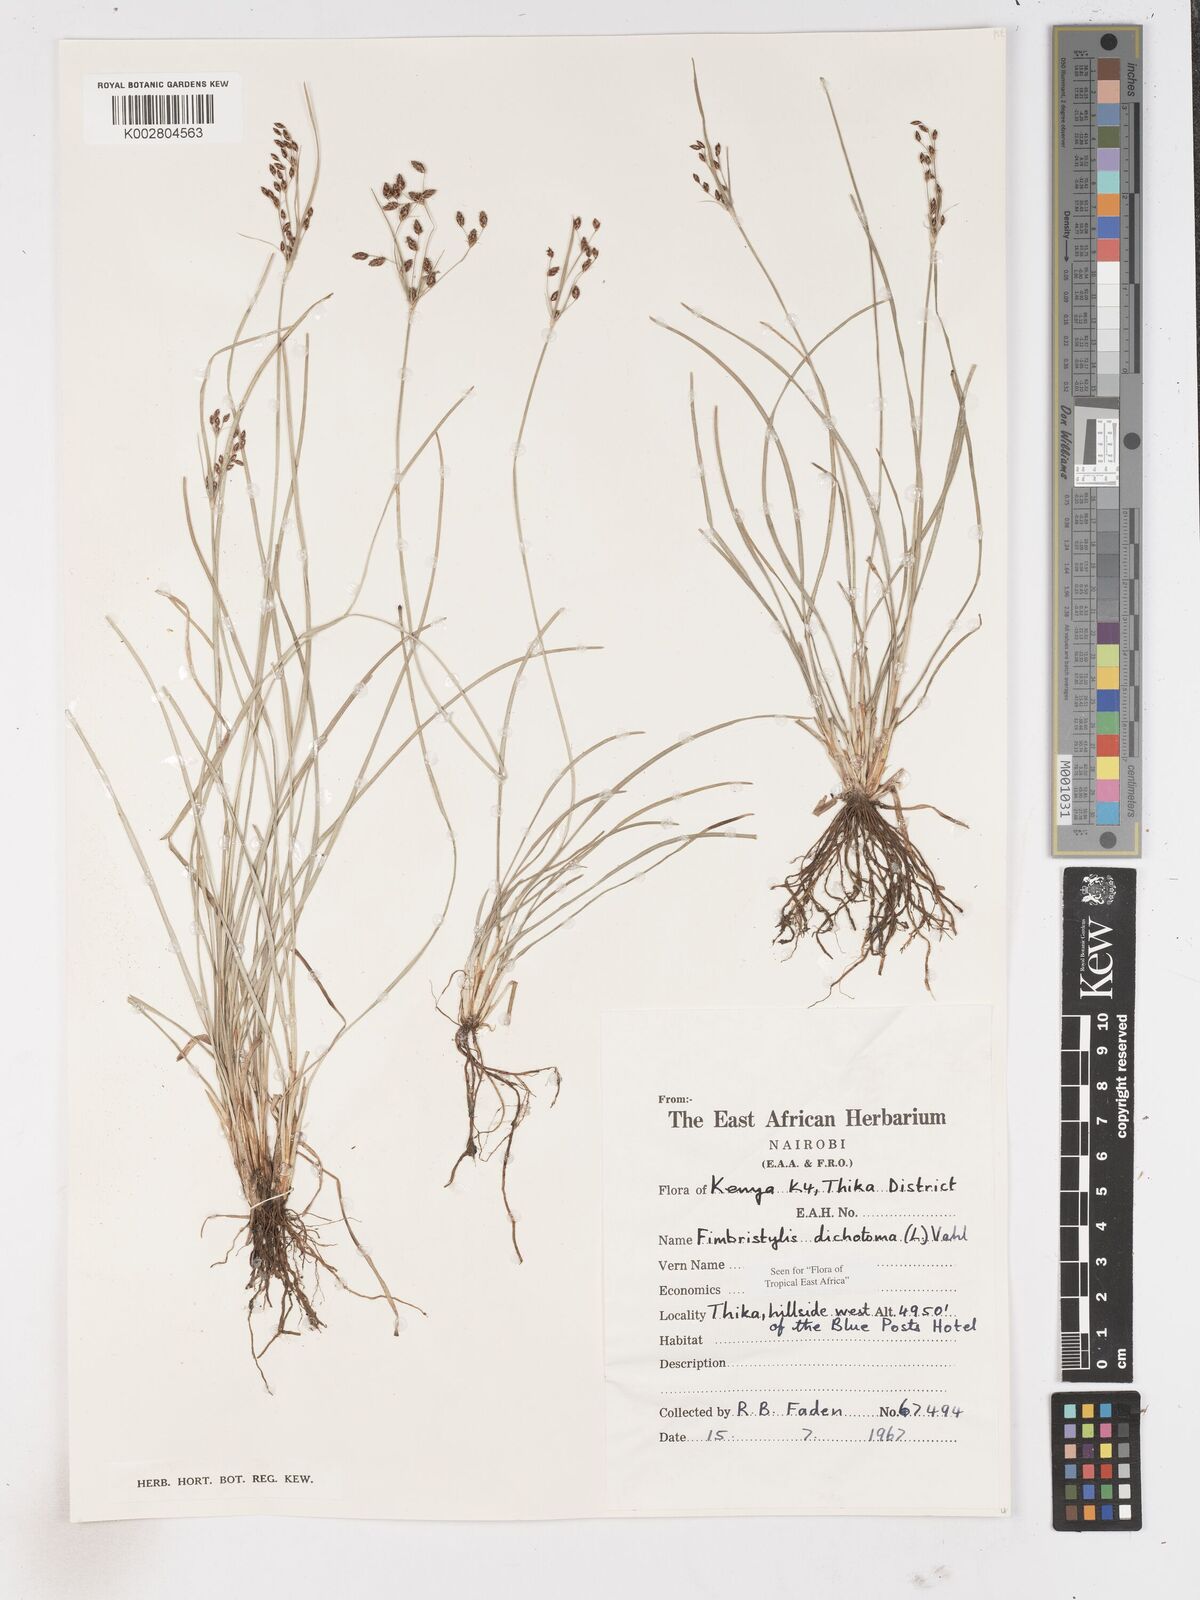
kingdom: Plantae
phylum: Tracheophyta
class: Liliopsida
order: Poales
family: Cyperaceae
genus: Fimbristylis
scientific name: Fimbristylis dichotoma
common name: Forked fimbry
